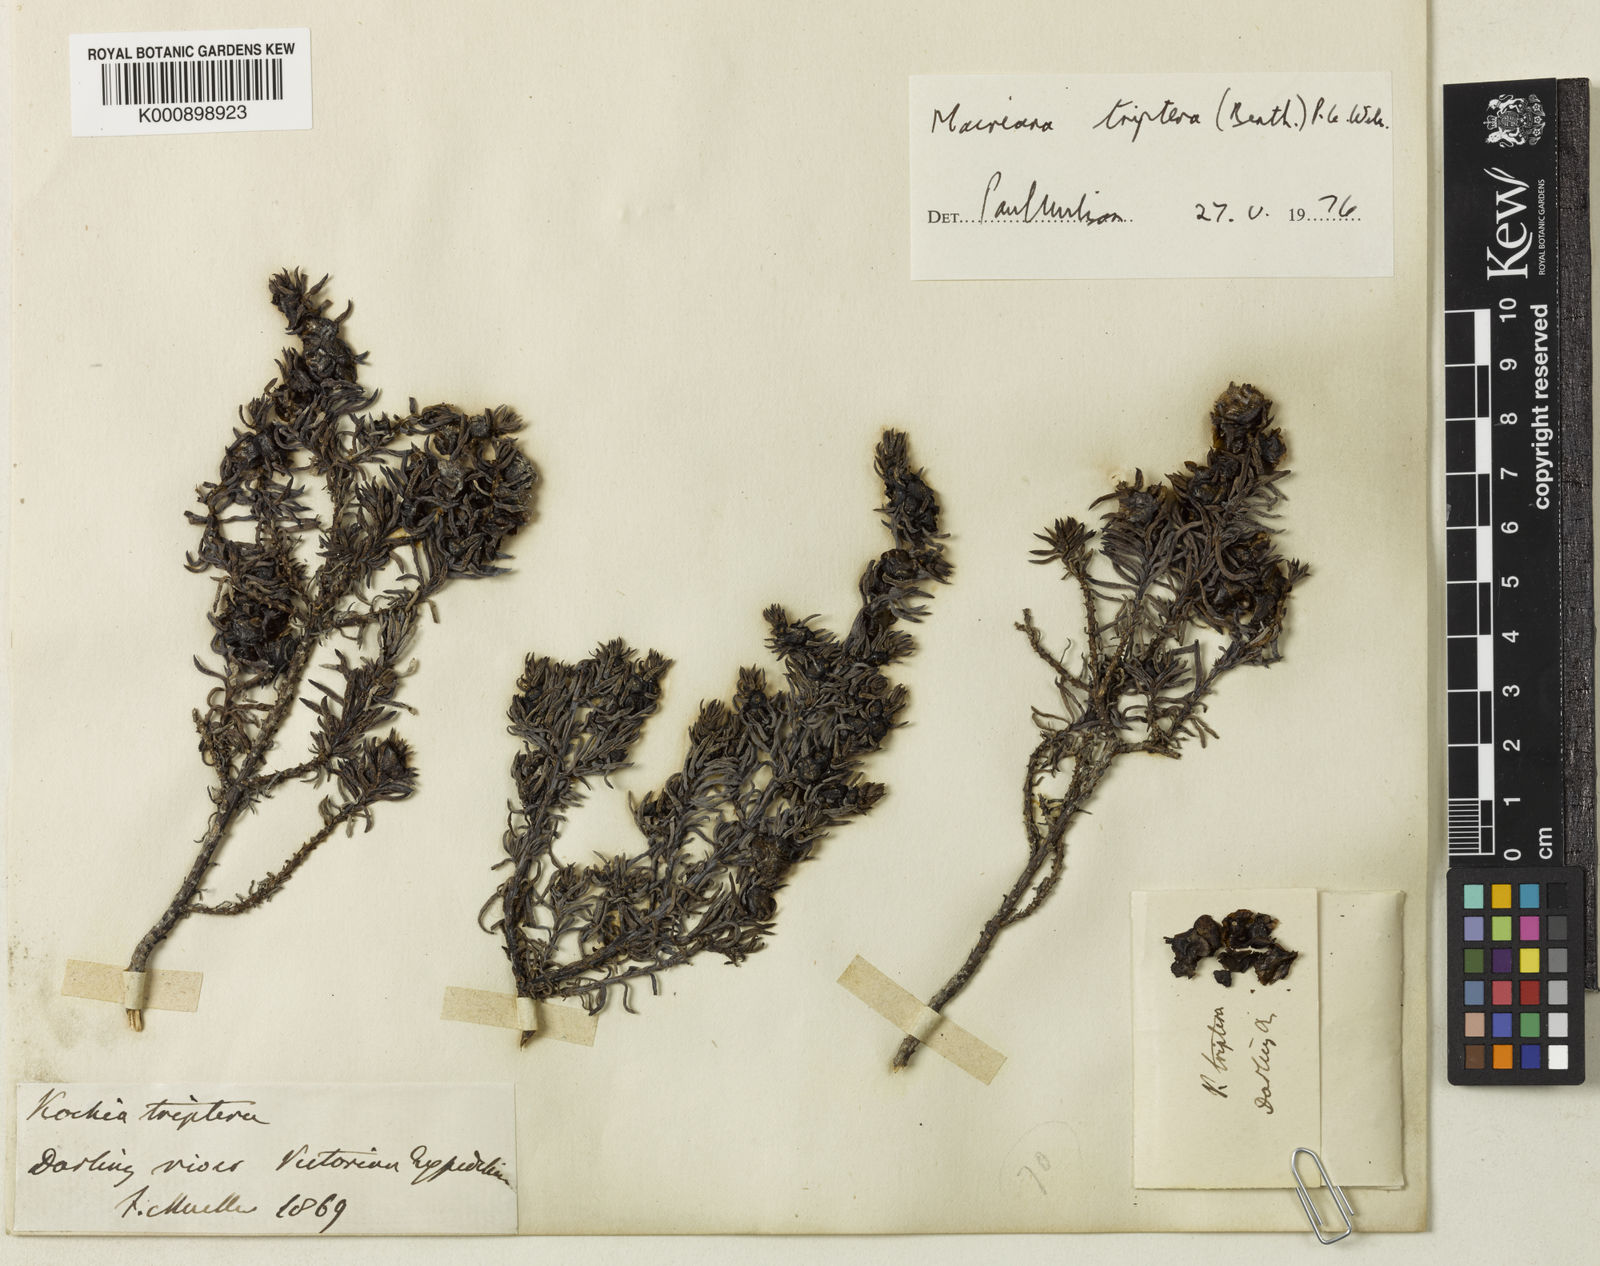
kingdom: Plantae
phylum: Tracheophyta
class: Magnoliopsida
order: Caryophyllales
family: Amaranthaceae
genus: Maireana
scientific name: Maireana triptera
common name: Three-wing bluebush
